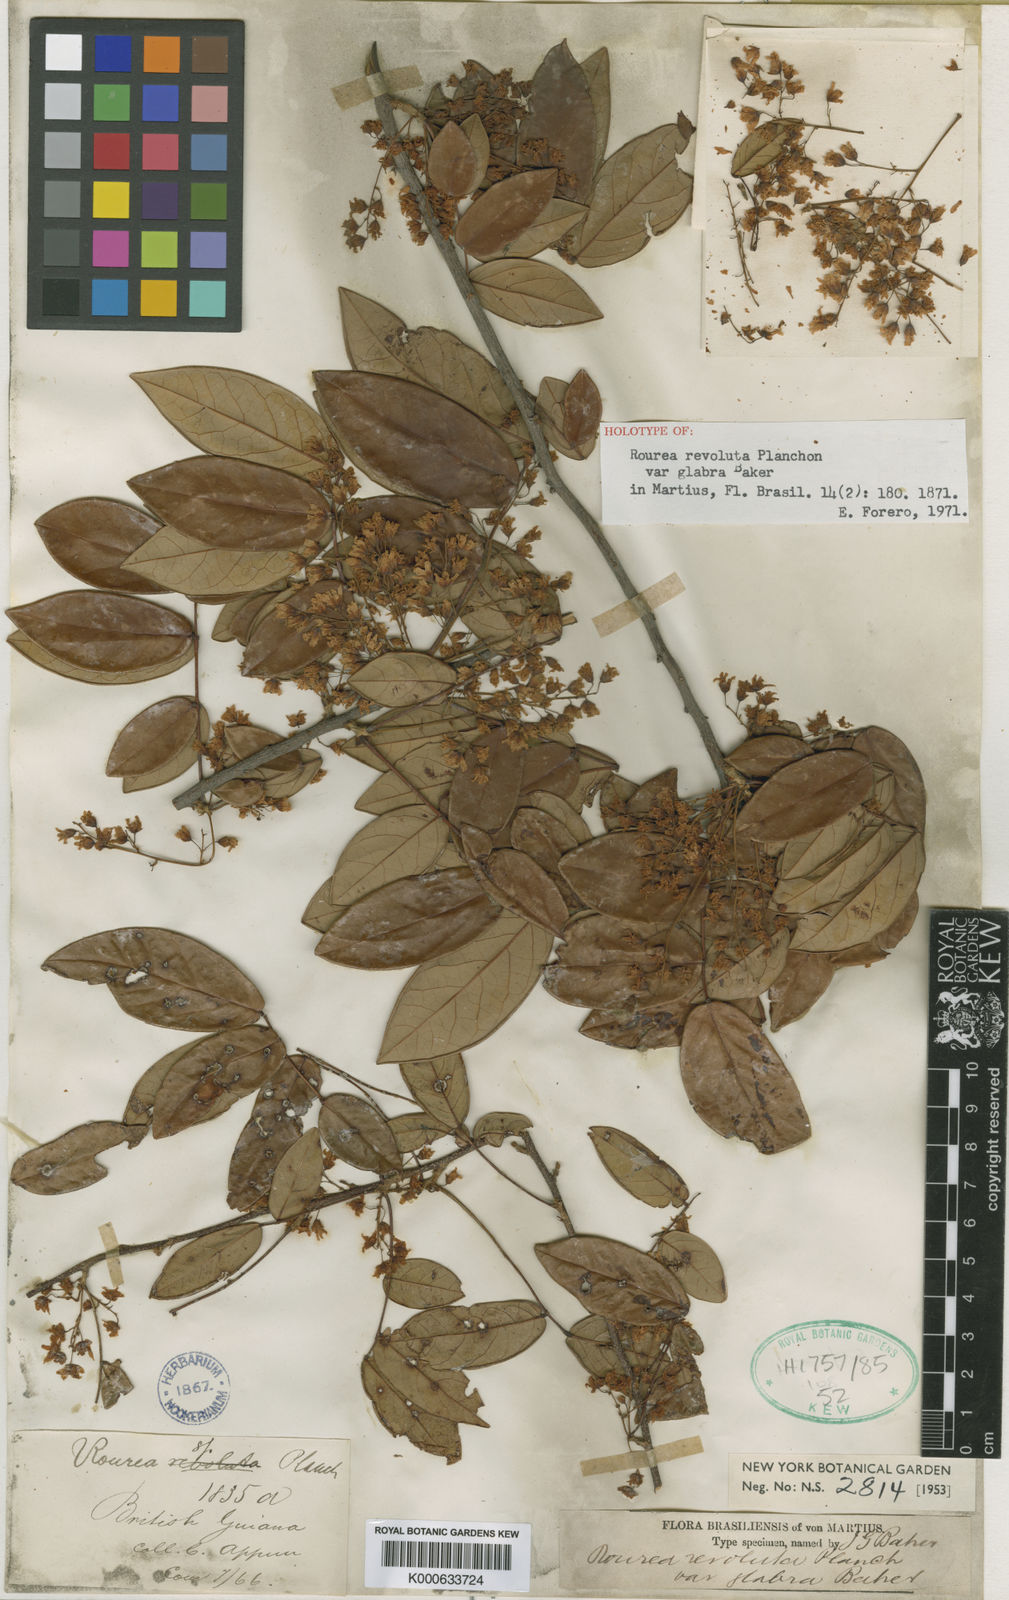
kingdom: Plantae
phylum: Tracheophyta
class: Magnoliopsida
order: Oxalidales
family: Connaraceae
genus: Rourea
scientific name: Rourea revoluta
